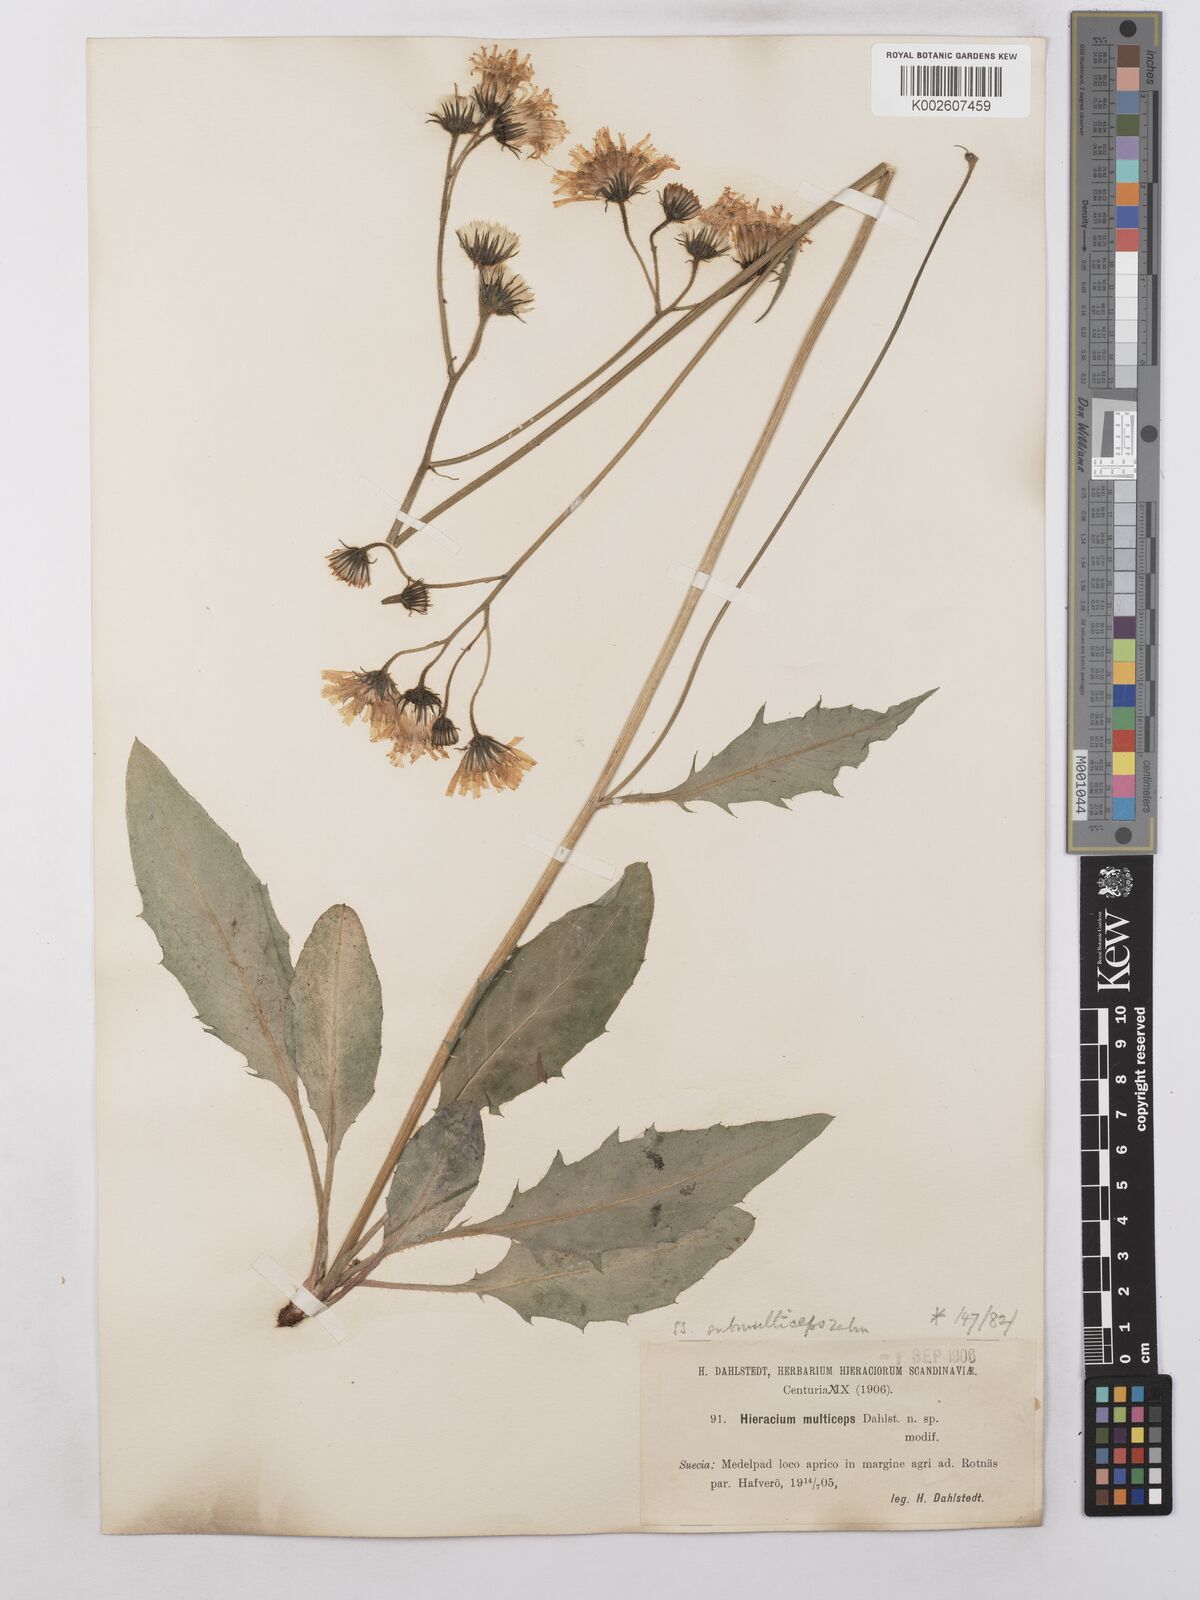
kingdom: Plantae
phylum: Tracheophyta
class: Magnoliopsida
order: Asterales
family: Asteraceae
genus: Hieracium
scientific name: Hieracium caesium
